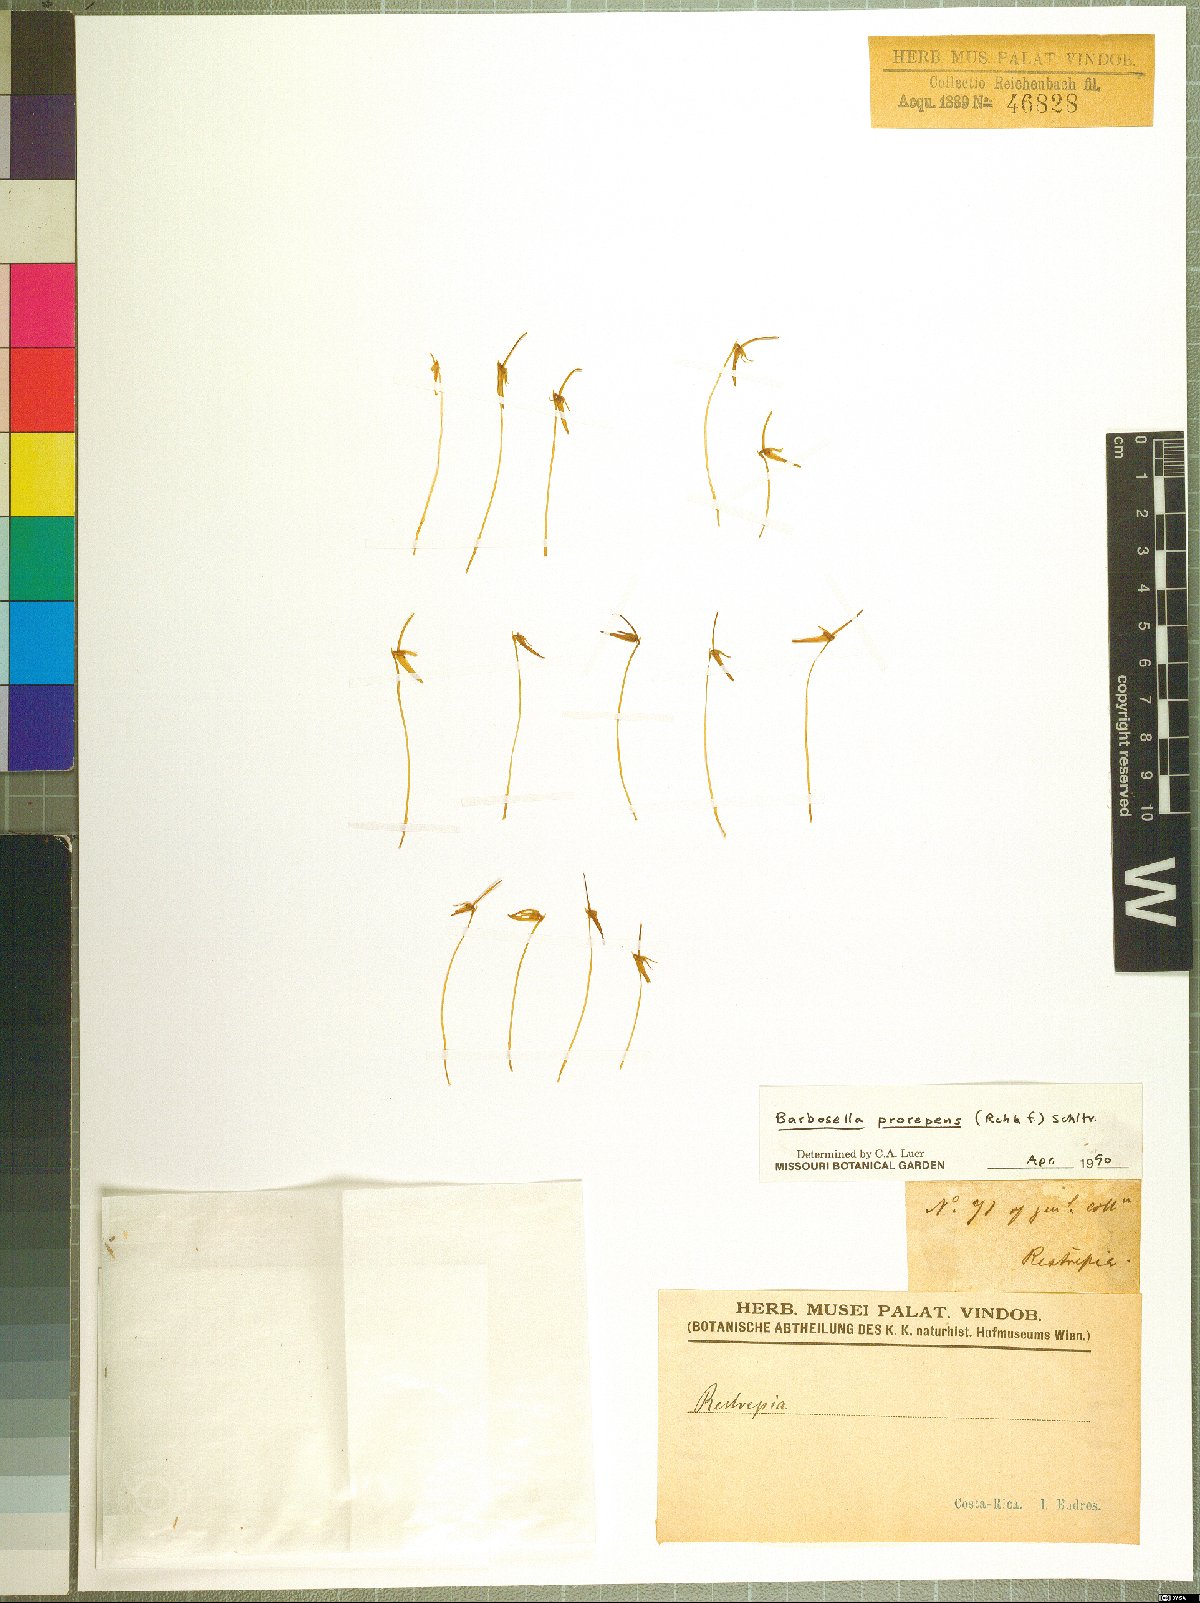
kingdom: Plantae
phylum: Tracheophyta
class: Liliopsida
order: Asparagales
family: Orchidaceae
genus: Barbosella
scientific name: Barbosella prorepens
